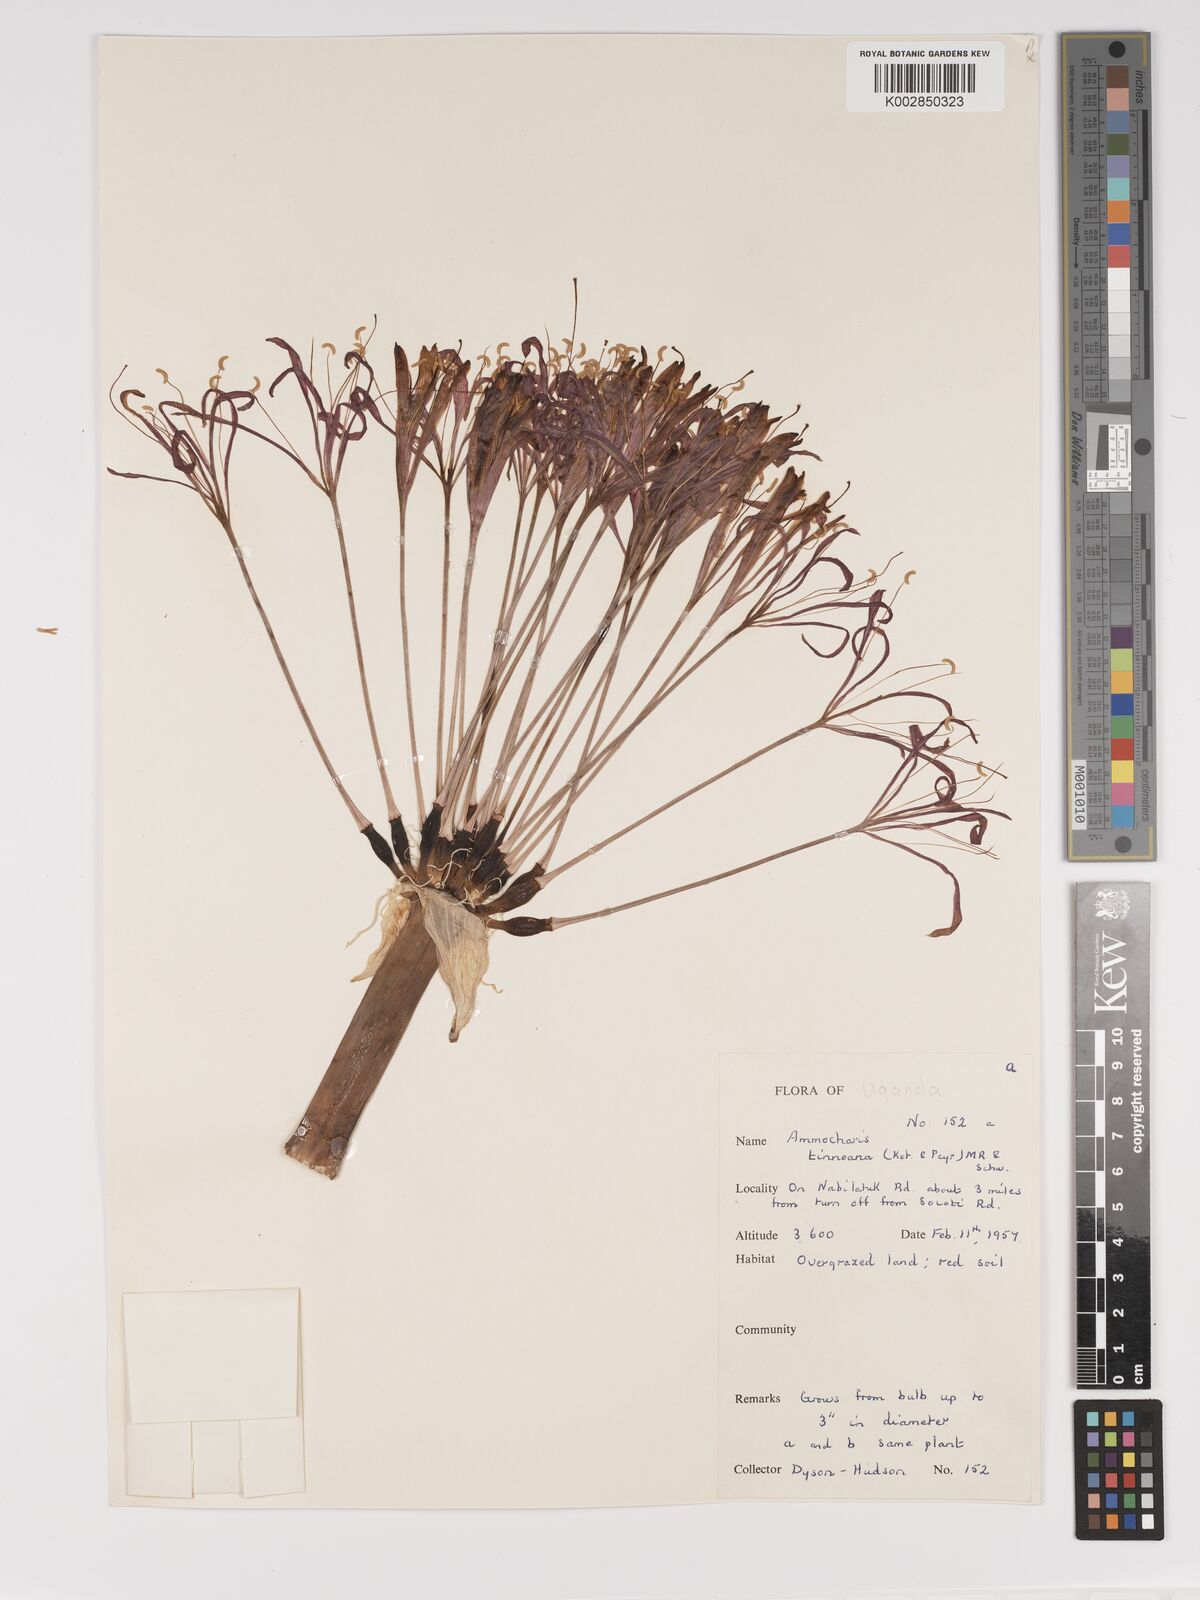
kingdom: Plantae
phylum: Tracheophyta
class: Liliopsida
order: Asparagales
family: Amaryllidaceae
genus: Ammocharis
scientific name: Ammocharis tinneana
